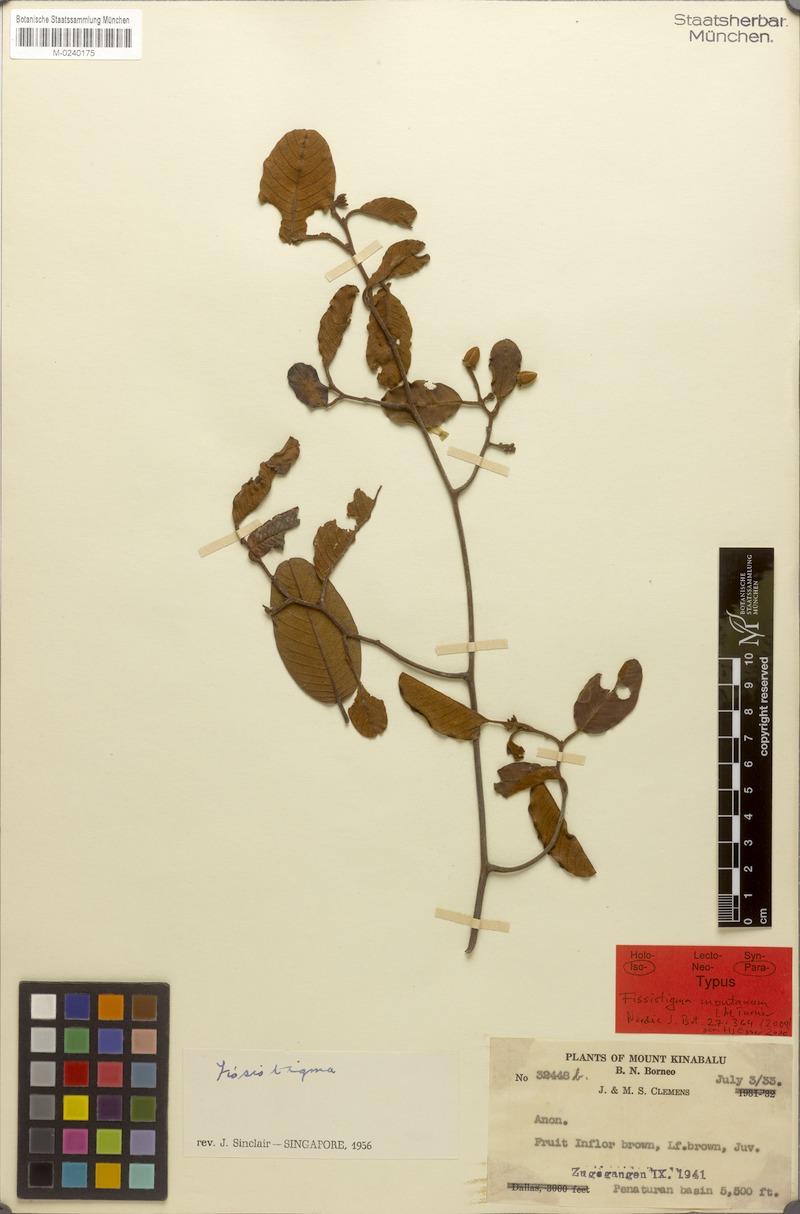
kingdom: Plantae
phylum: Tracheophyta
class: Magnoliopsida
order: Magnoliales
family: Annonaceae
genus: Fissistigma
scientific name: Fissistigma montanum
